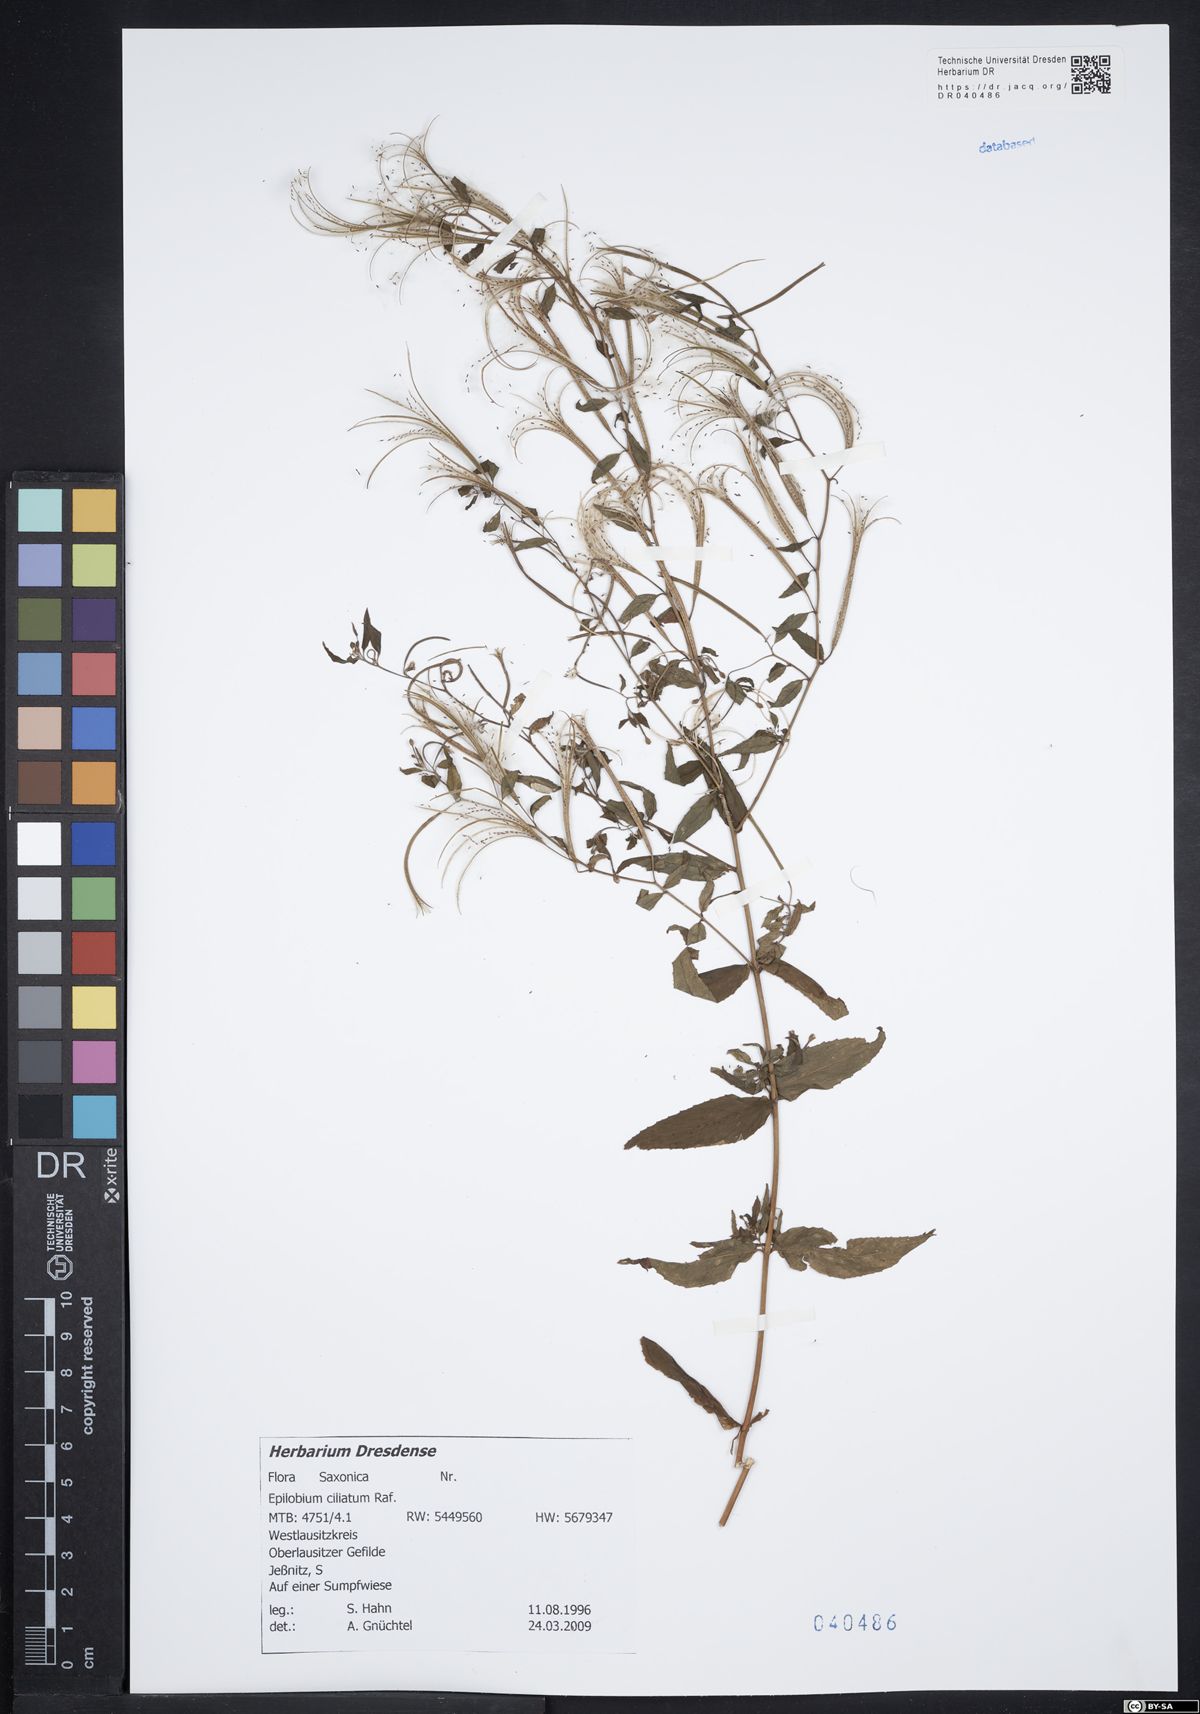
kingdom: Plantae
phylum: Tracheophyta
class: Magnoliopsida
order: Myrtales
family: Onagraceae
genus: Epilobium
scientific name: Epilobium ciliatum
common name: American willowherb
